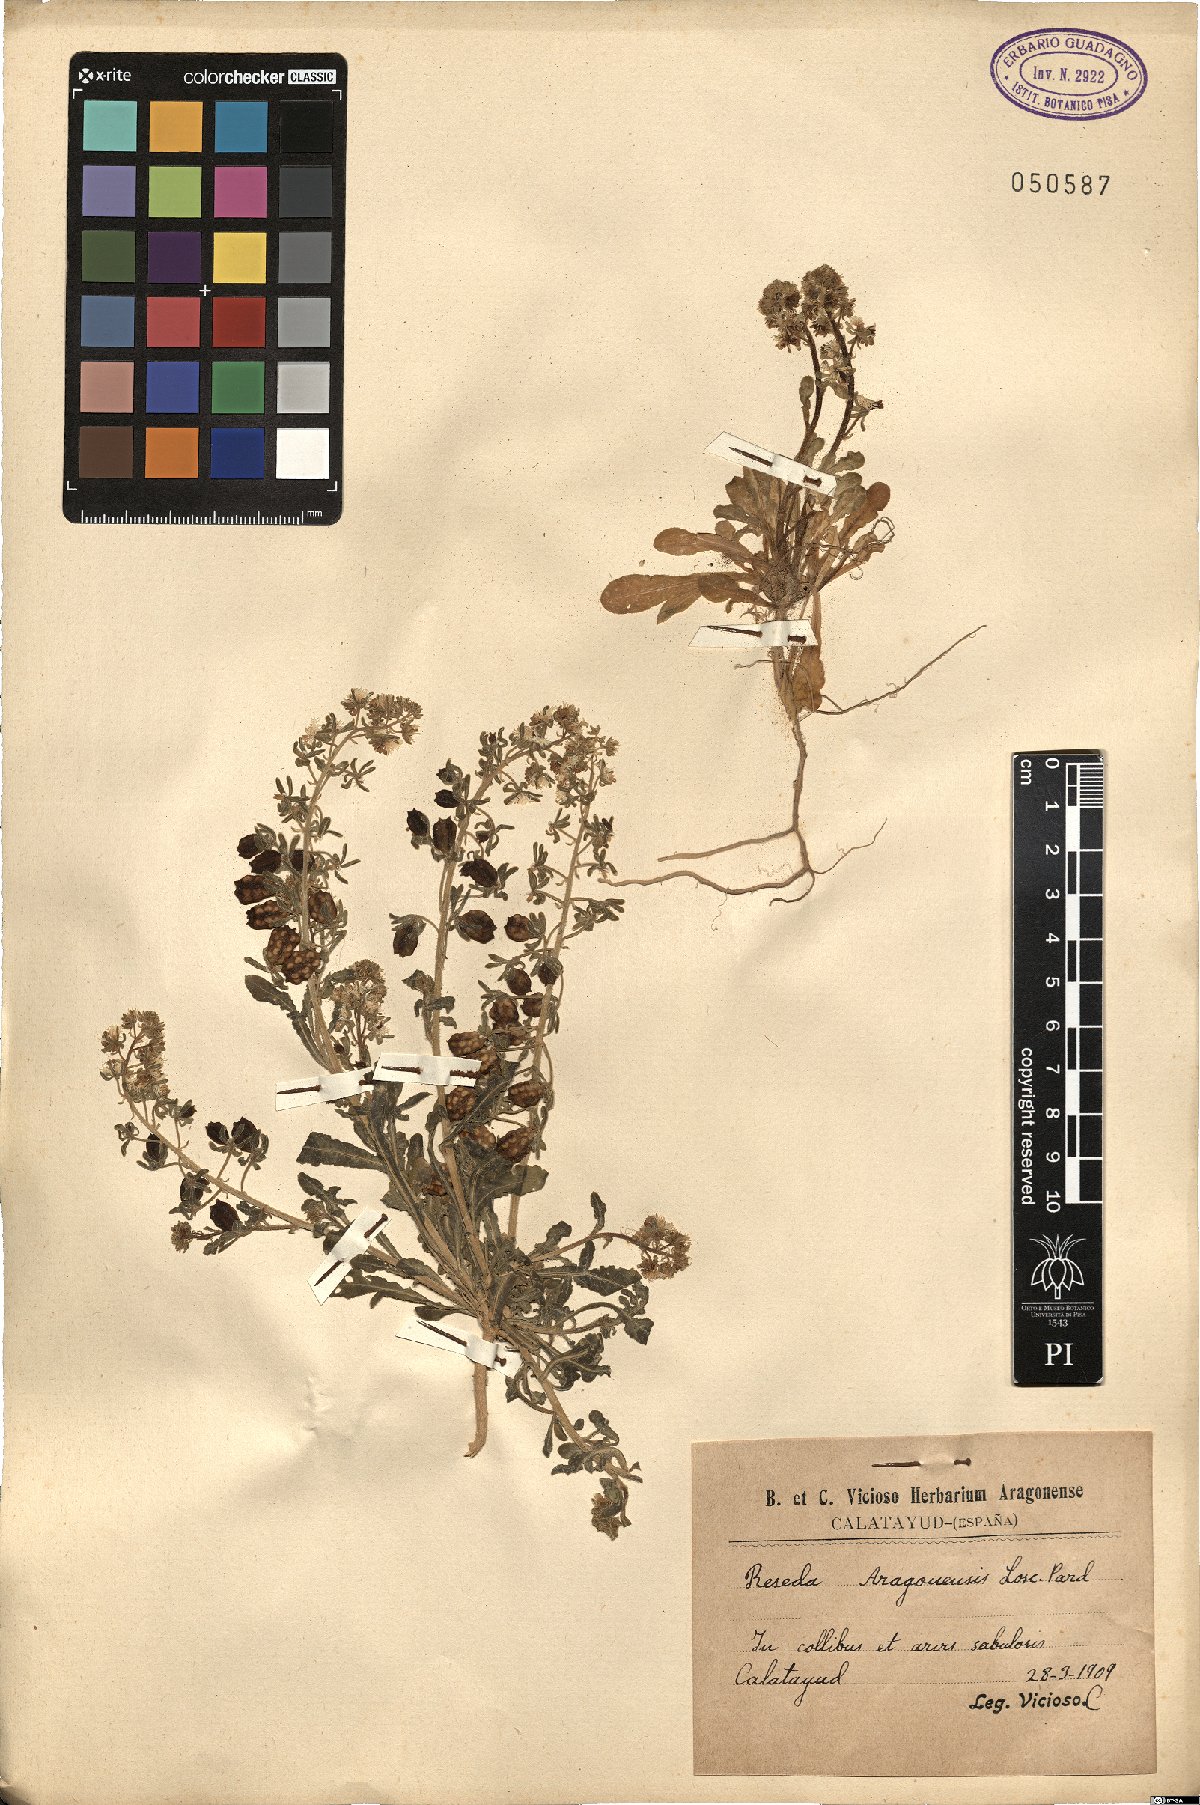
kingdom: Plantae
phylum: Tracheophyta
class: Magnoliopsida
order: Brassicales
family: Resedaceae
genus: Reseda
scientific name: Reseda phyteuma
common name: Corn mignonette
